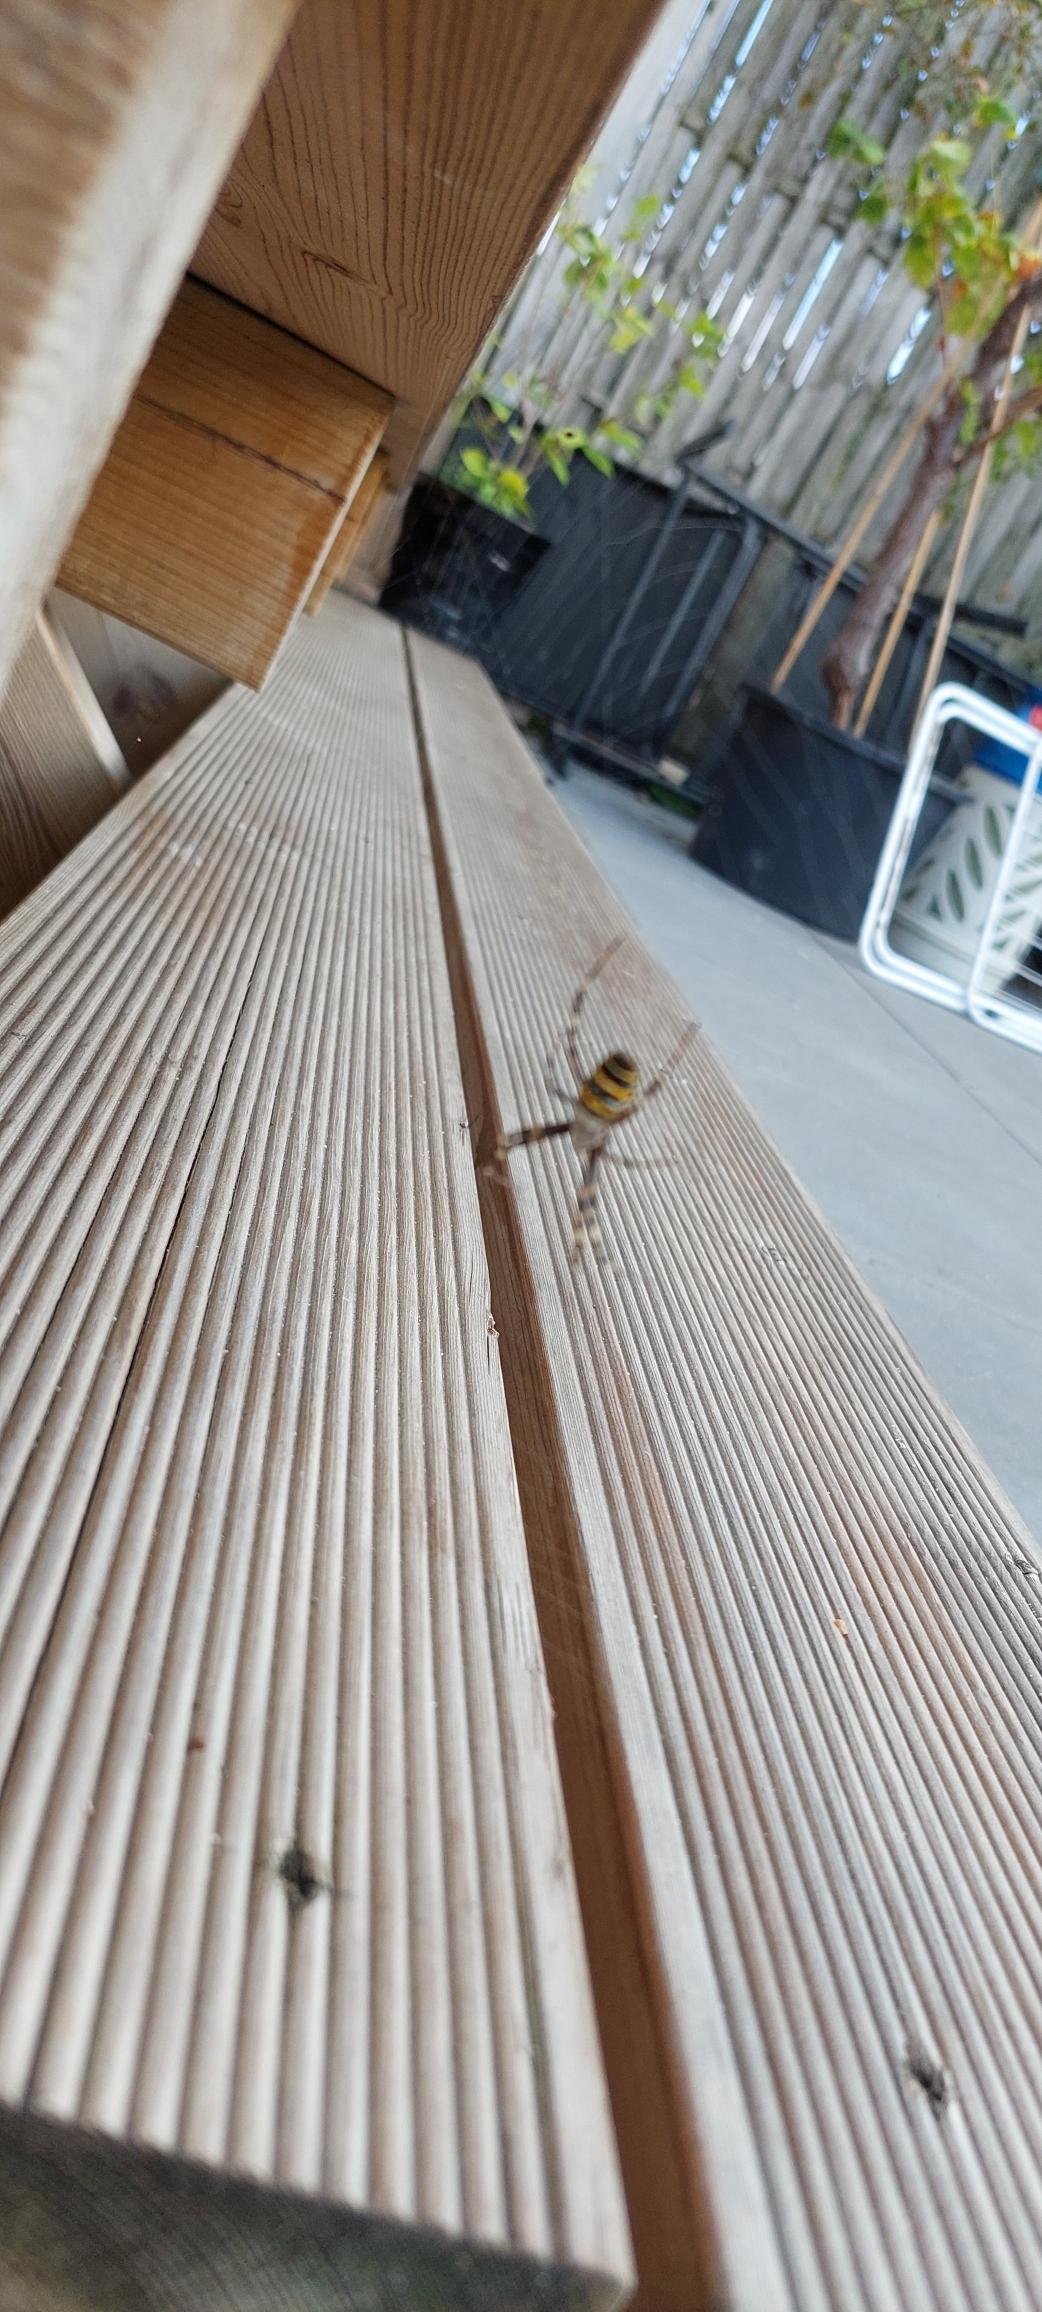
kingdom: Animalia
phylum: Arthropoda
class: Arachnida
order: Araneae
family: Araneidae
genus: Argiope
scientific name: Argiope bruennichi
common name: Hvepseedderkop
